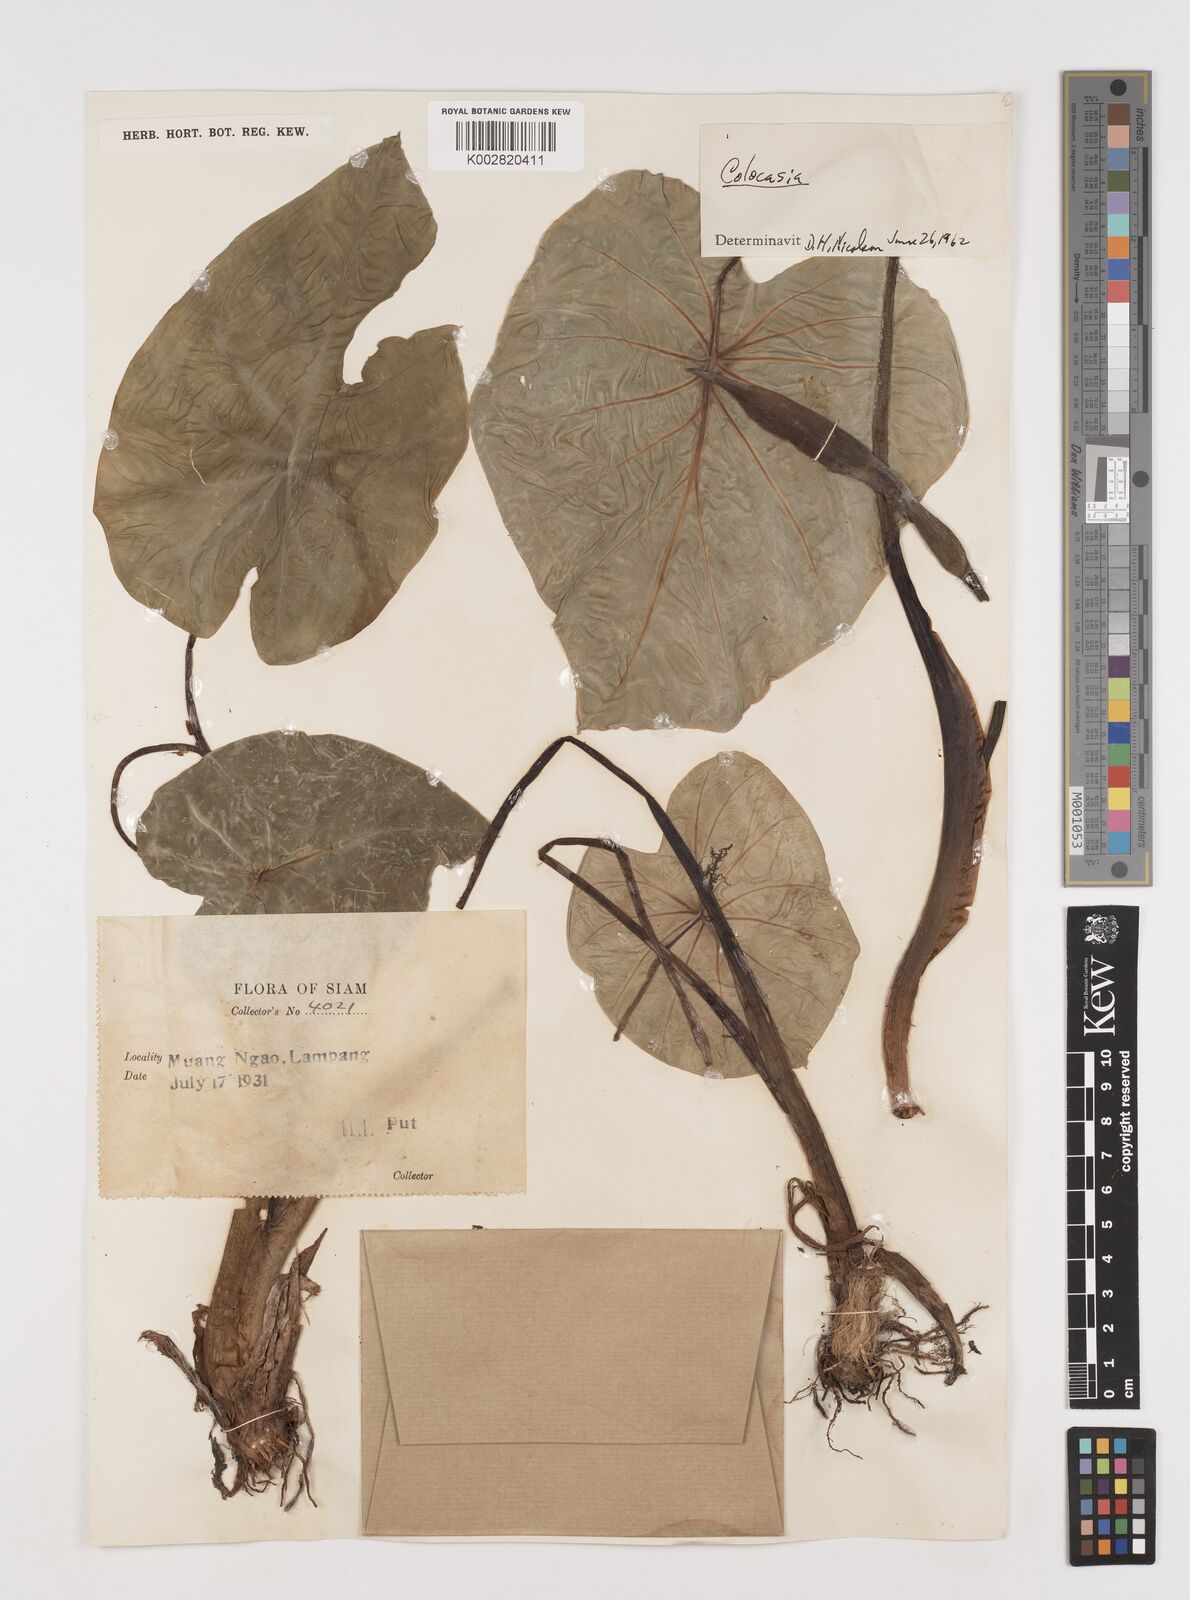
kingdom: Plantae
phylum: Tracheophyta
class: Liliopsida
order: Alismatales
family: Araceae
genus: Colocasia
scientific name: Colocasia esculenta
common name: Taro
